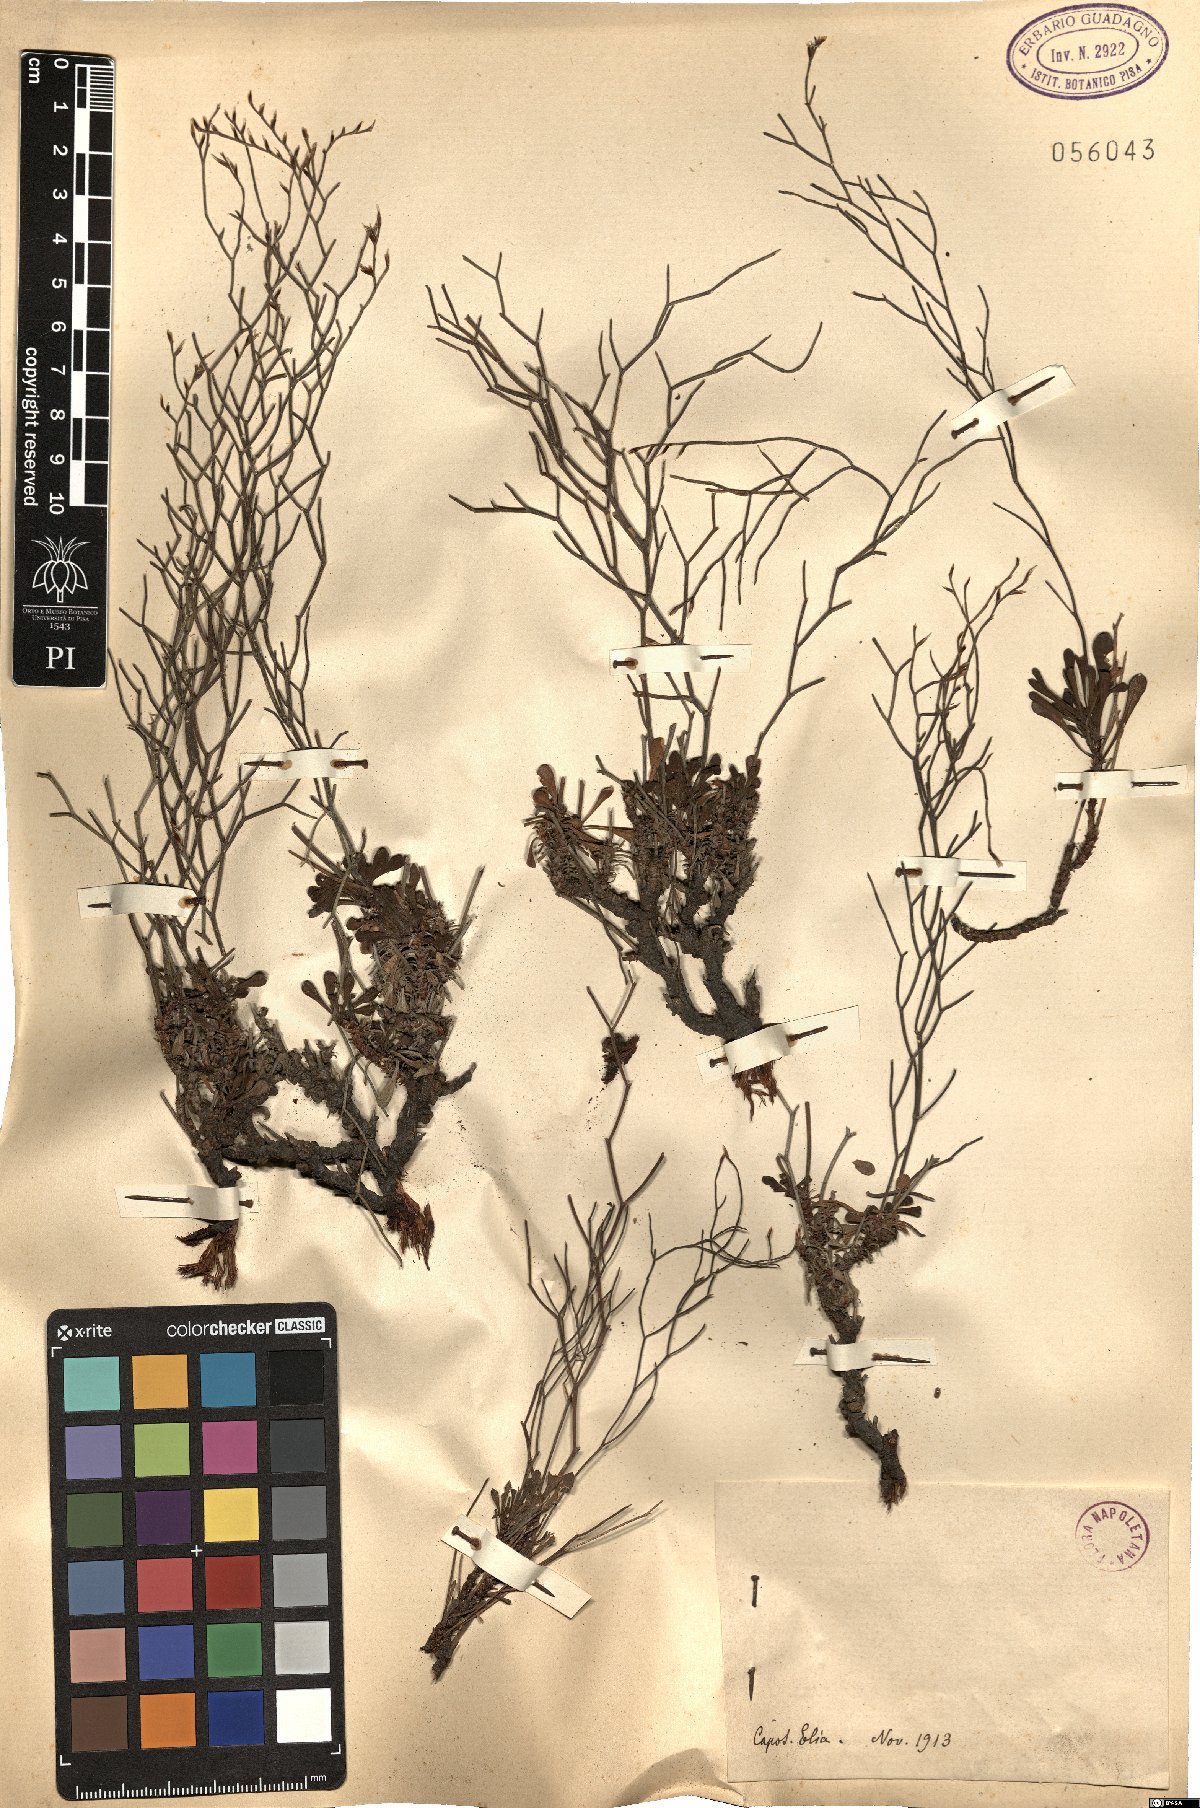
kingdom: Plantae
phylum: Tracheophyta
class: Magnoliopsida
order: Caryophyllales
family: Plumbaginaceae
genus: Armeria
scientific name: Armeria
